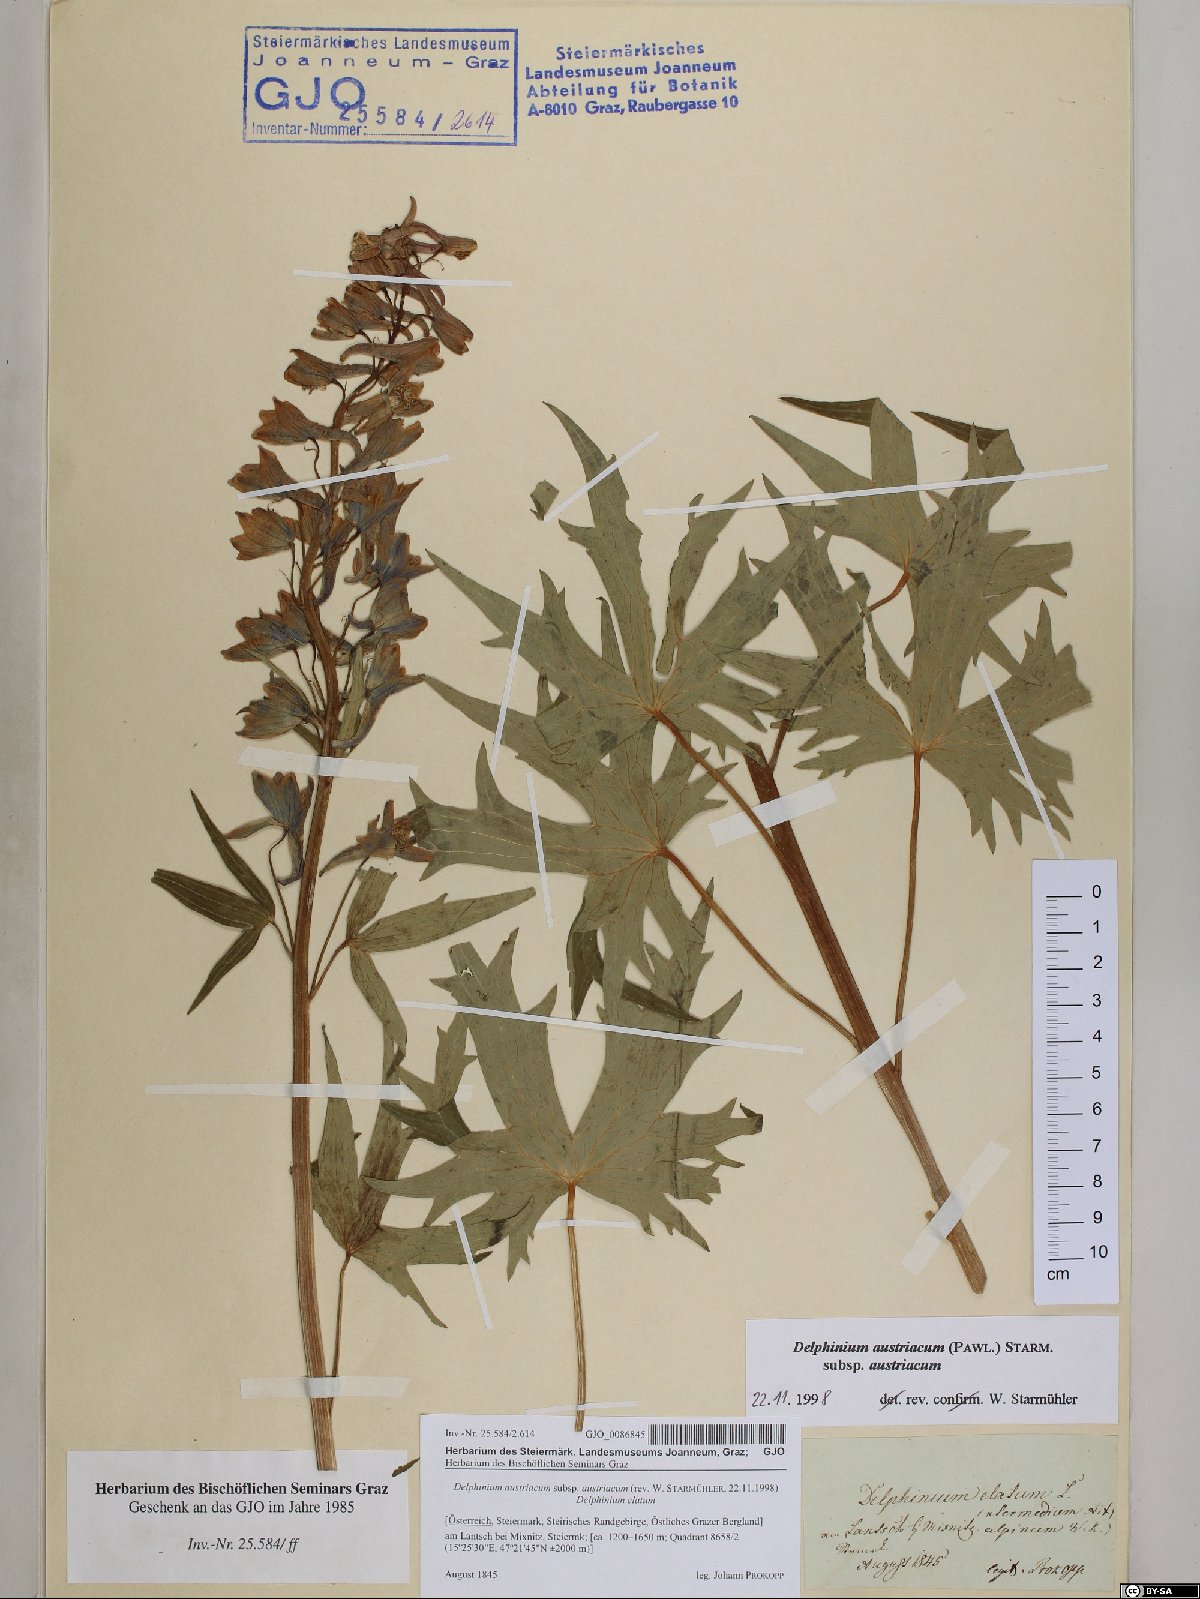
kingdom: Plantae
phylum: Tracheophyta
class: Magnoliopsida
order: Ranunculales
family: Ranunculaceae
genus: Delphinium
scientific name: Delphinium austriacum
